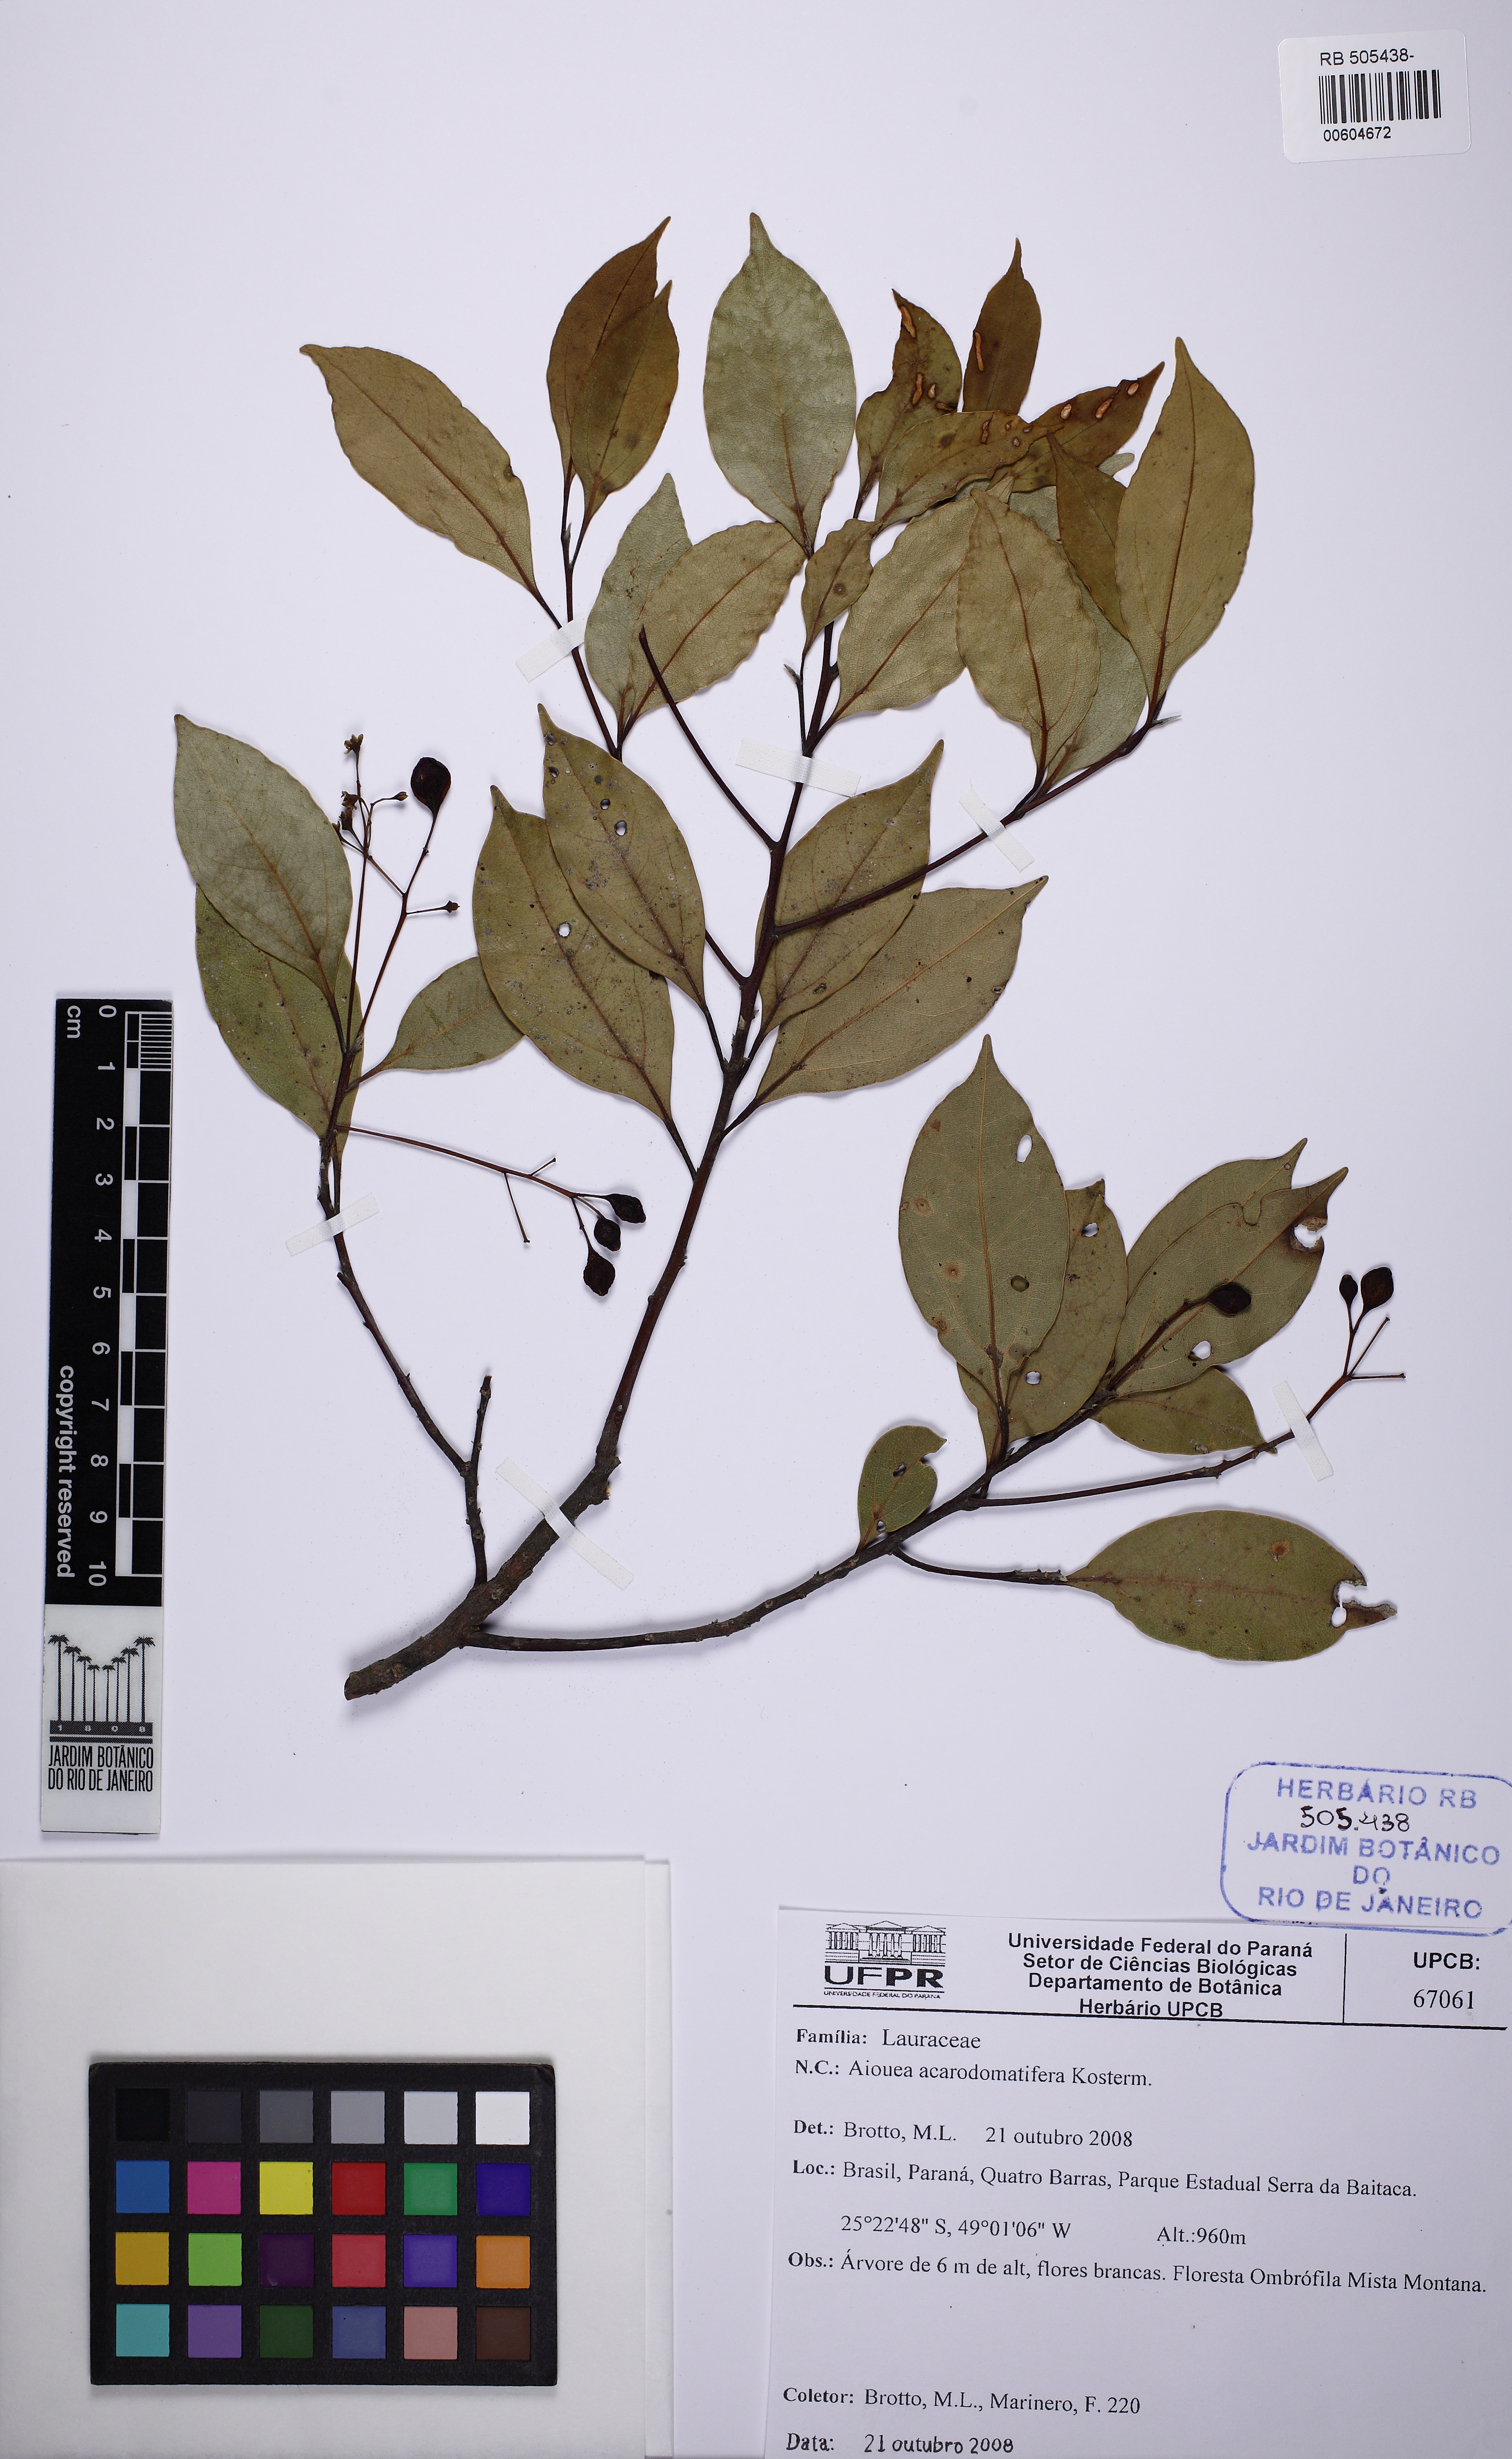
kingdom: Plantae
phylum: Tracheophyta
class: Magnoliopsida
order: Laurales
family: Lauraceae
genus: Aiouea
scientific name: Aiouea acarodomatifera
